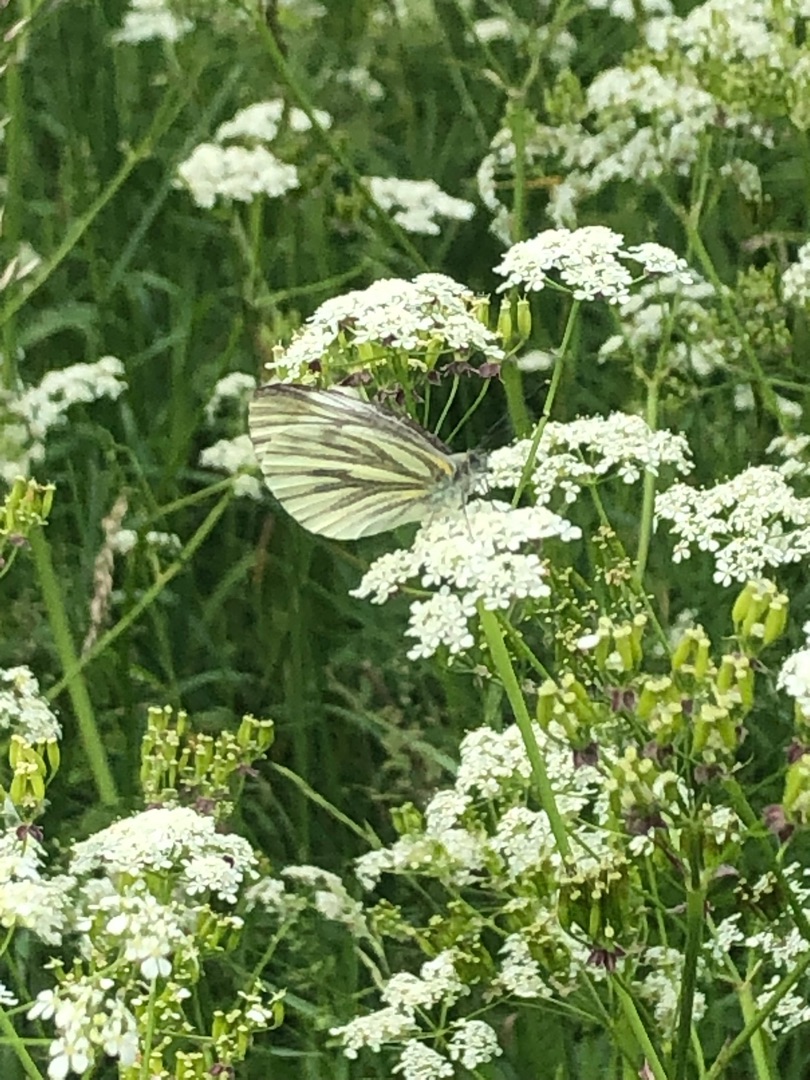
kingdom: Animalia
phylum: Arthropoda
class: Insecta
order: Lepidoptera
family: Pieridae
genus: Pieris
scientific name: Pieris napi
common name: Grønåret kålsommerfugl
